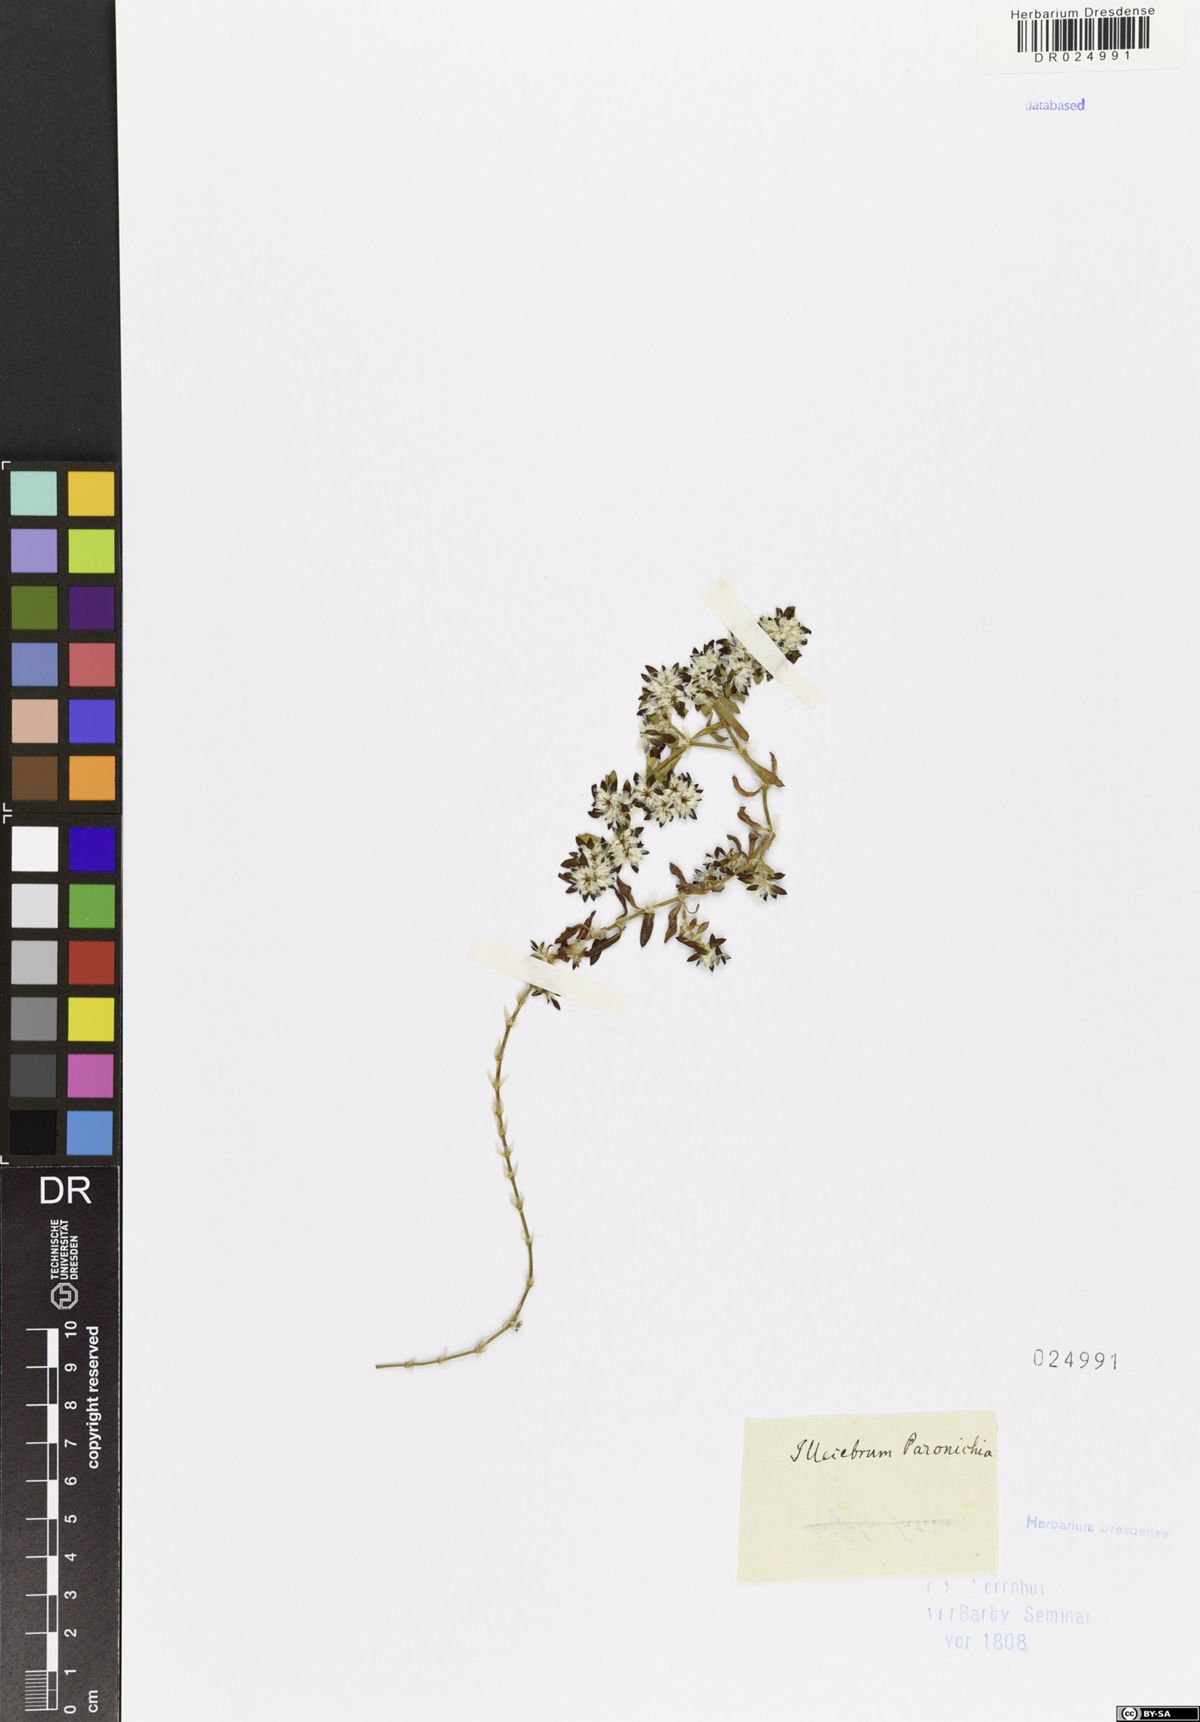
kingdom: Plantae
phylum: Tracheophyta
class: Magnoliopsida
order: Caryophyllales
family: Caryophyllaceae
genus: Paronychia
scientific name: Paronychia argentea
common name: Silver nailroot
